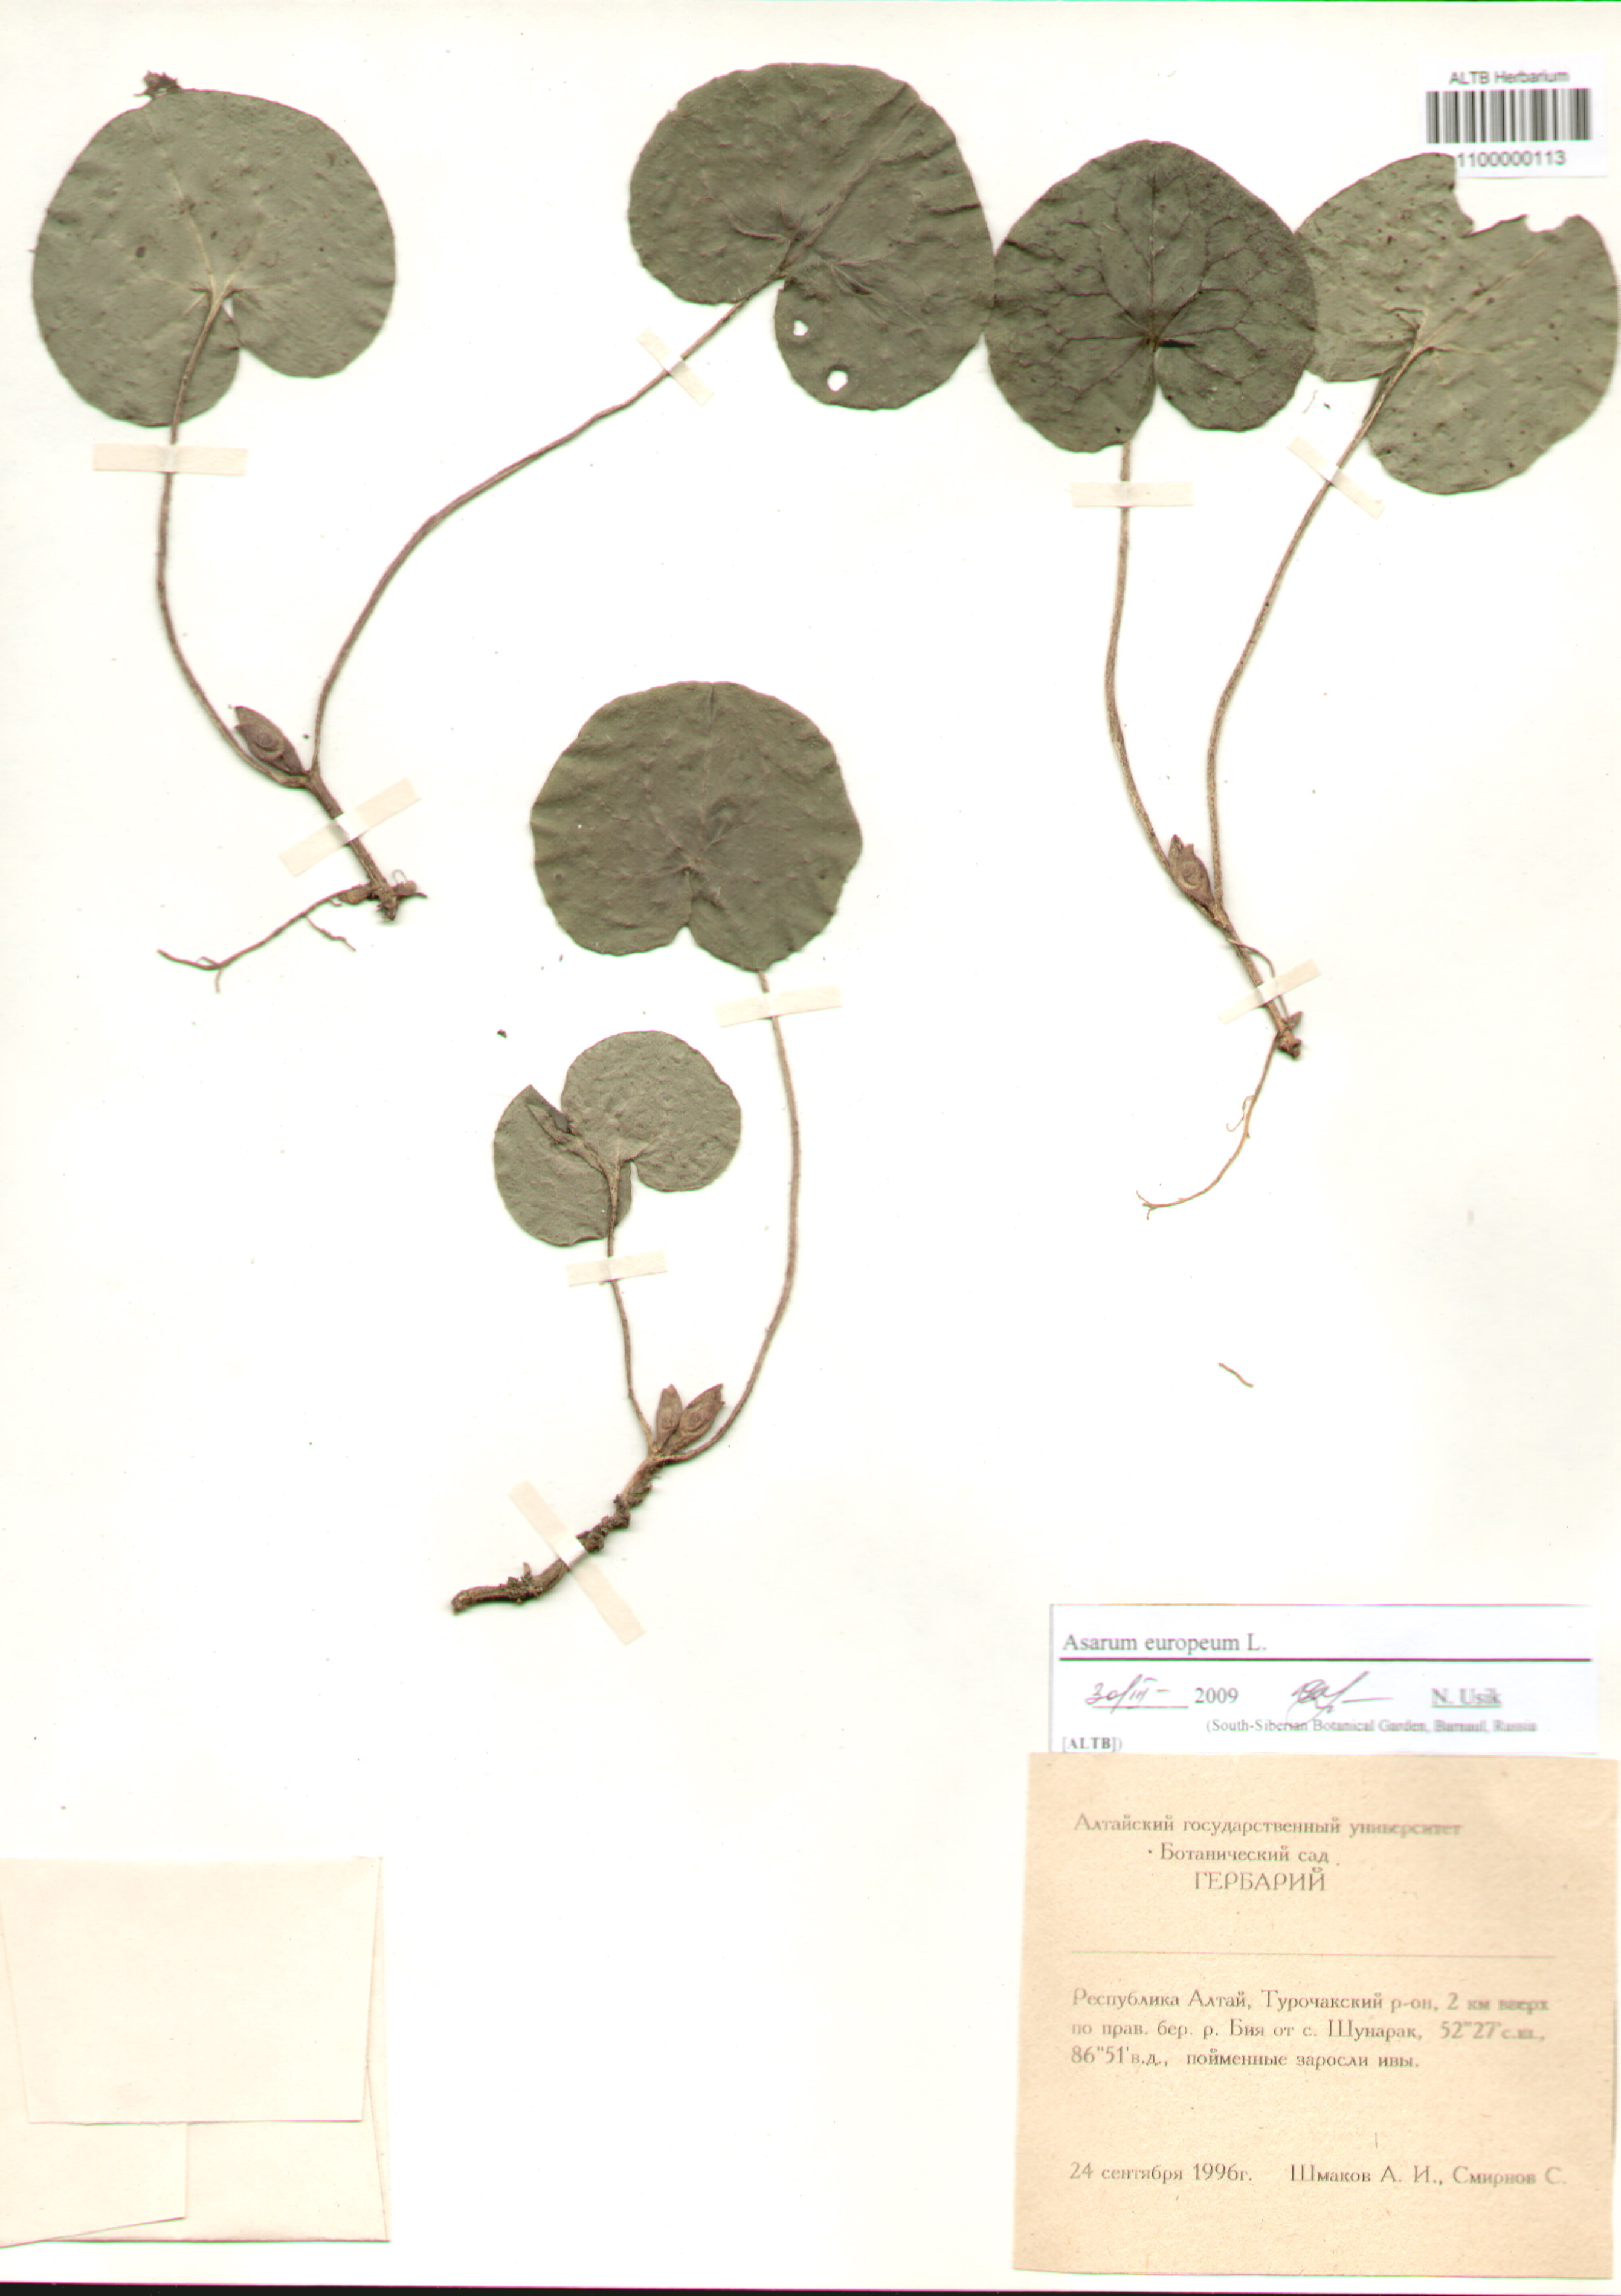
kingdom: Plantae
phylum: Tracheophyta
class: Magnoliopsida
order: Piperales
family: Aristolochiaceae
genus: Asarum
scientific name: Asarum europaeum
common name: Asarabacca
